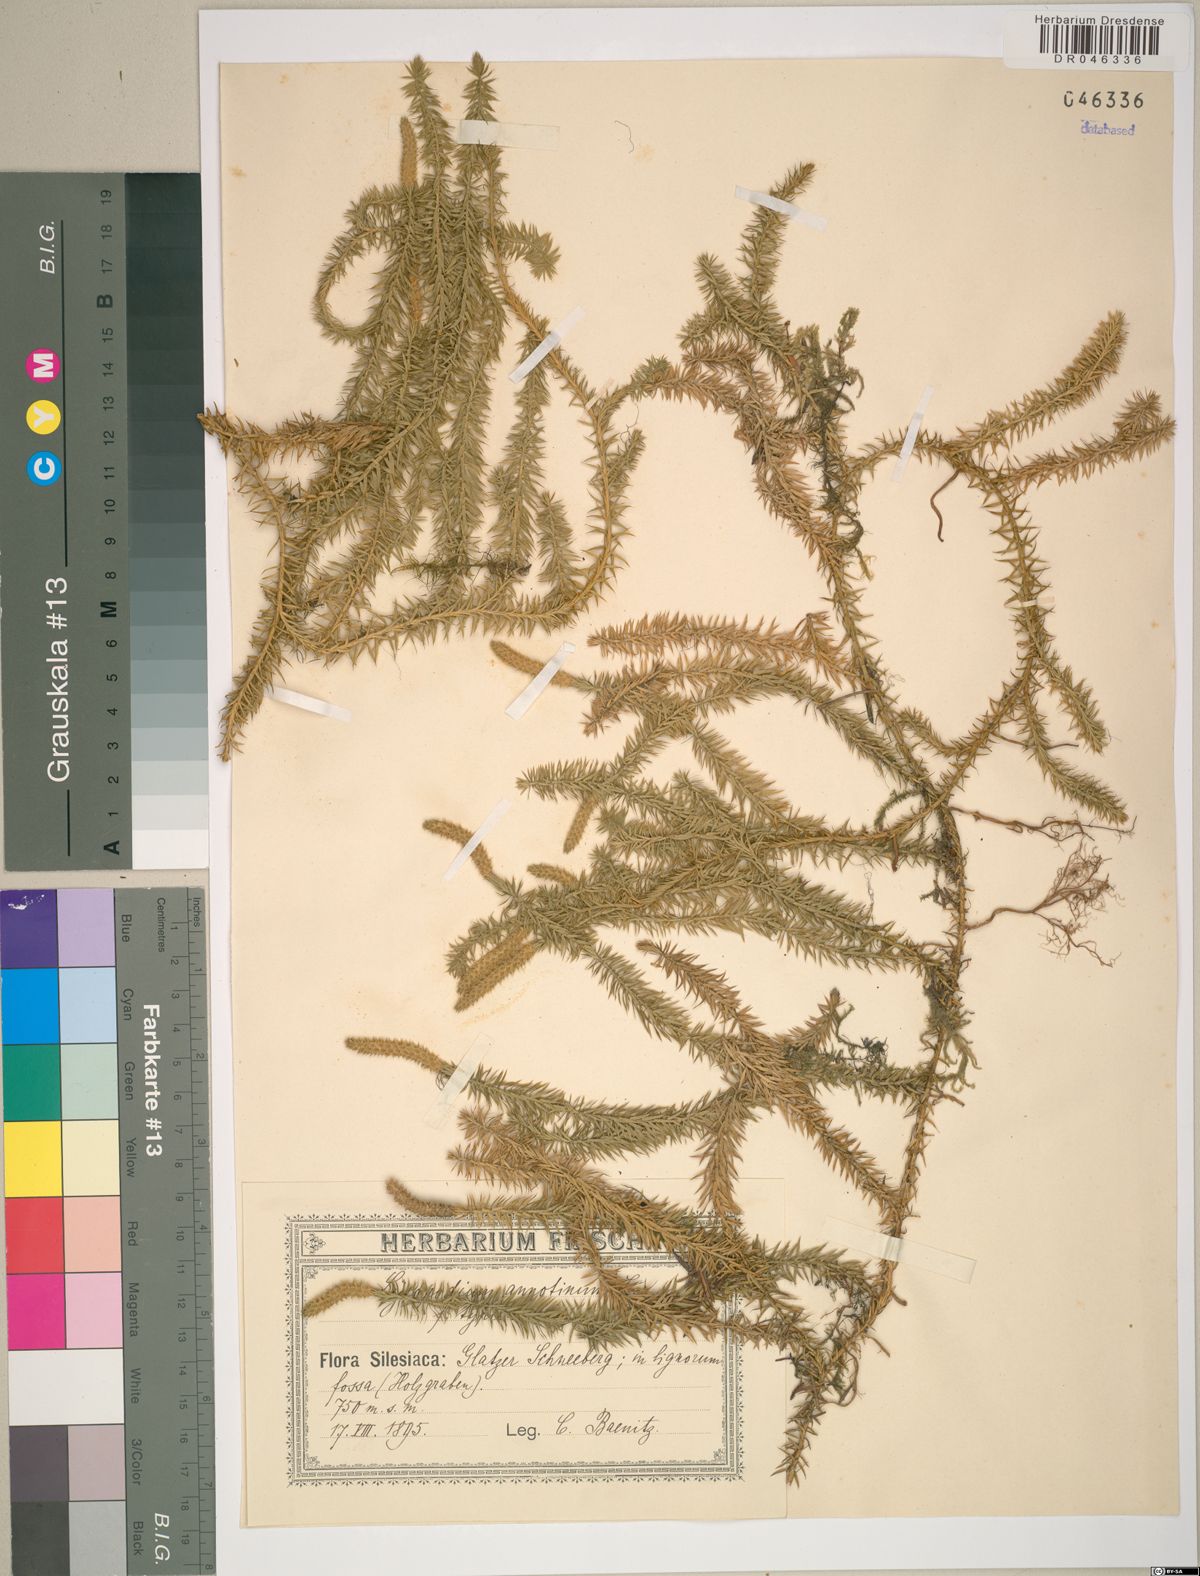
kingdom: Plantae
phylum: Tracheophyta
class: Lycopodiopsida
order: Lycopodiales
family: Lycopodiaceae
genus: Spinulum
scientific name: Spinulum annotinum
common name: Interrupted club-moss
